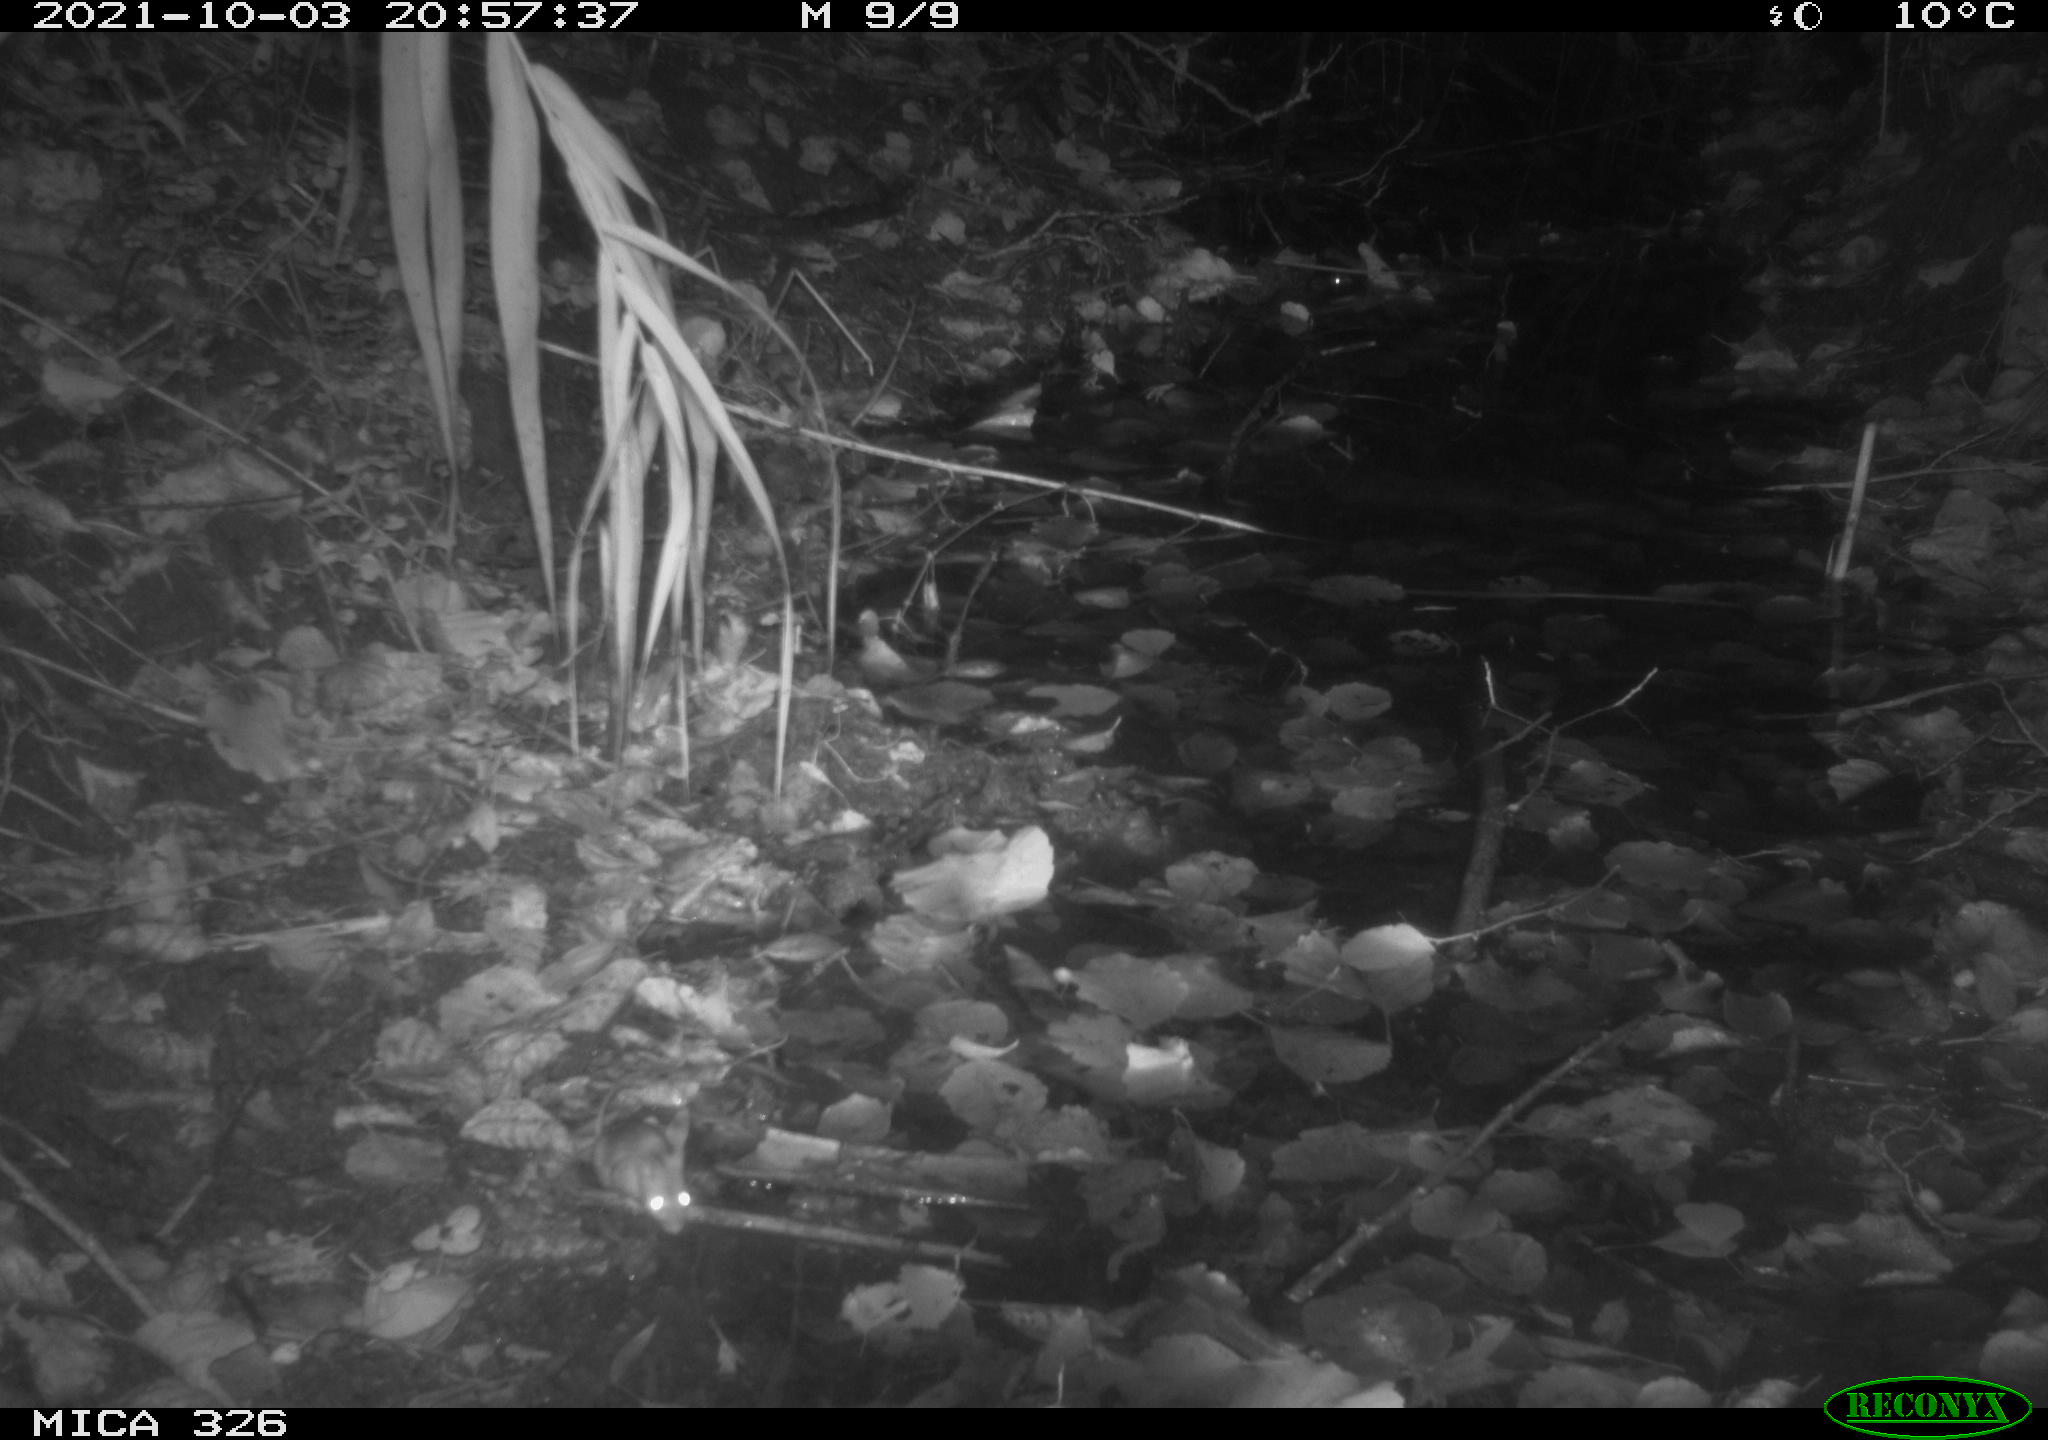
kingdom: Animalia
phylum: Chordata
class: Mammalia
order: Rodentia
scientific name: Rodentia
